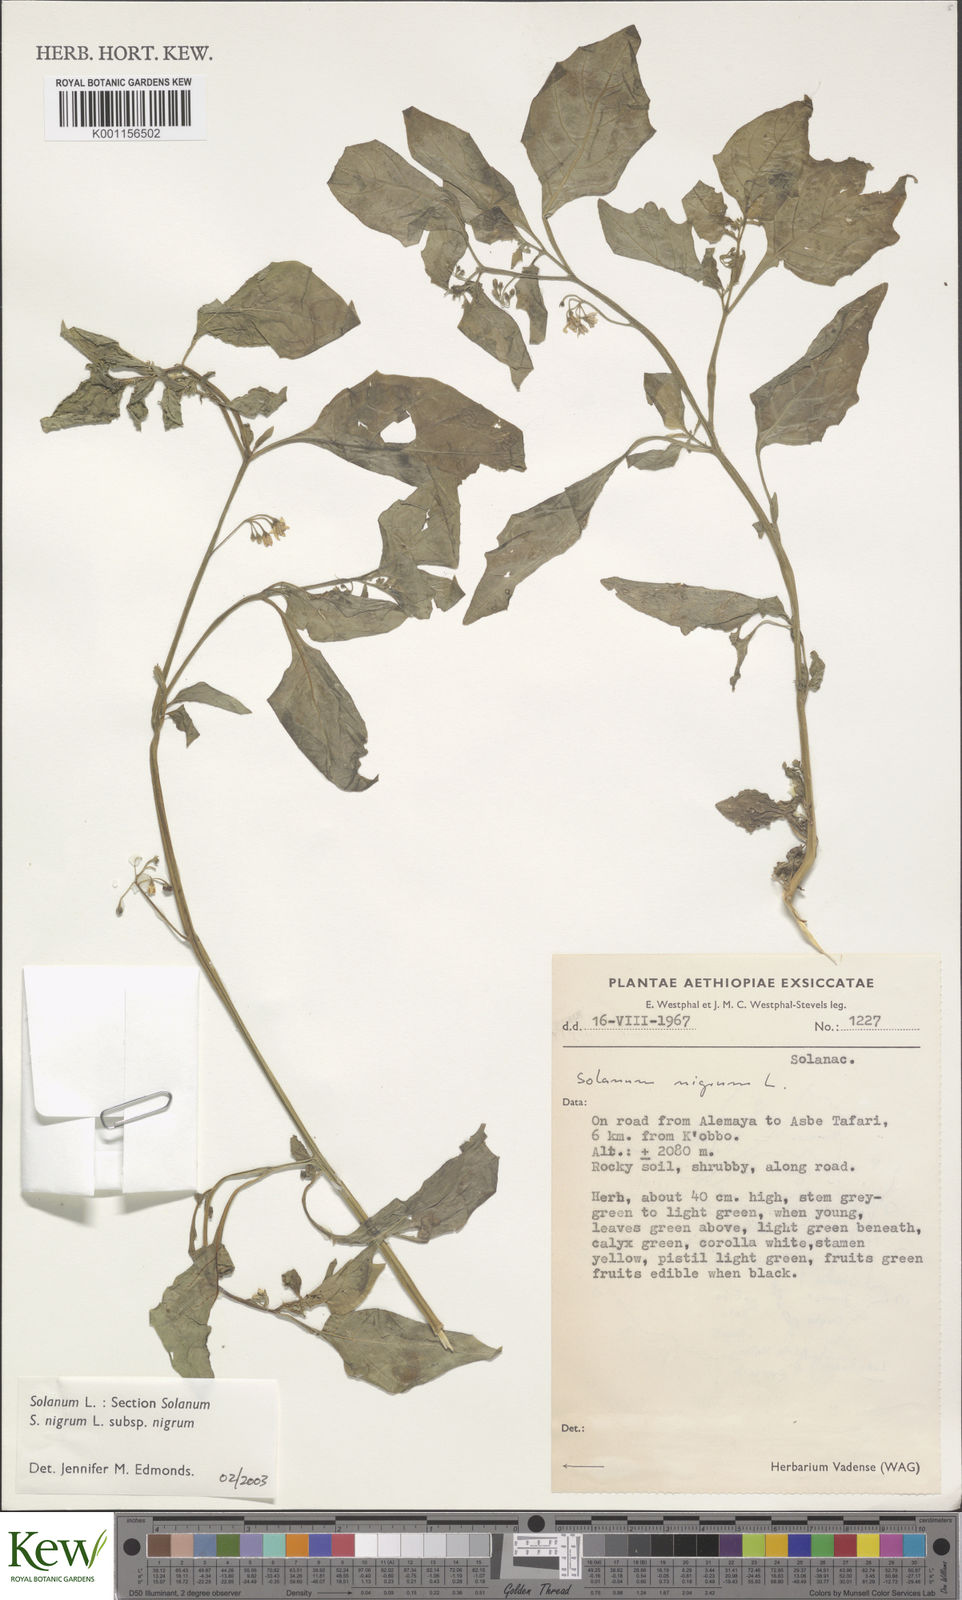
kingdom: Plantae
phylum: Tracheophyta
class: Magnoliopsida
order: Solanales
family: Solanaceae
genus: Solanum
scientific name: Solanum tarderemotum
